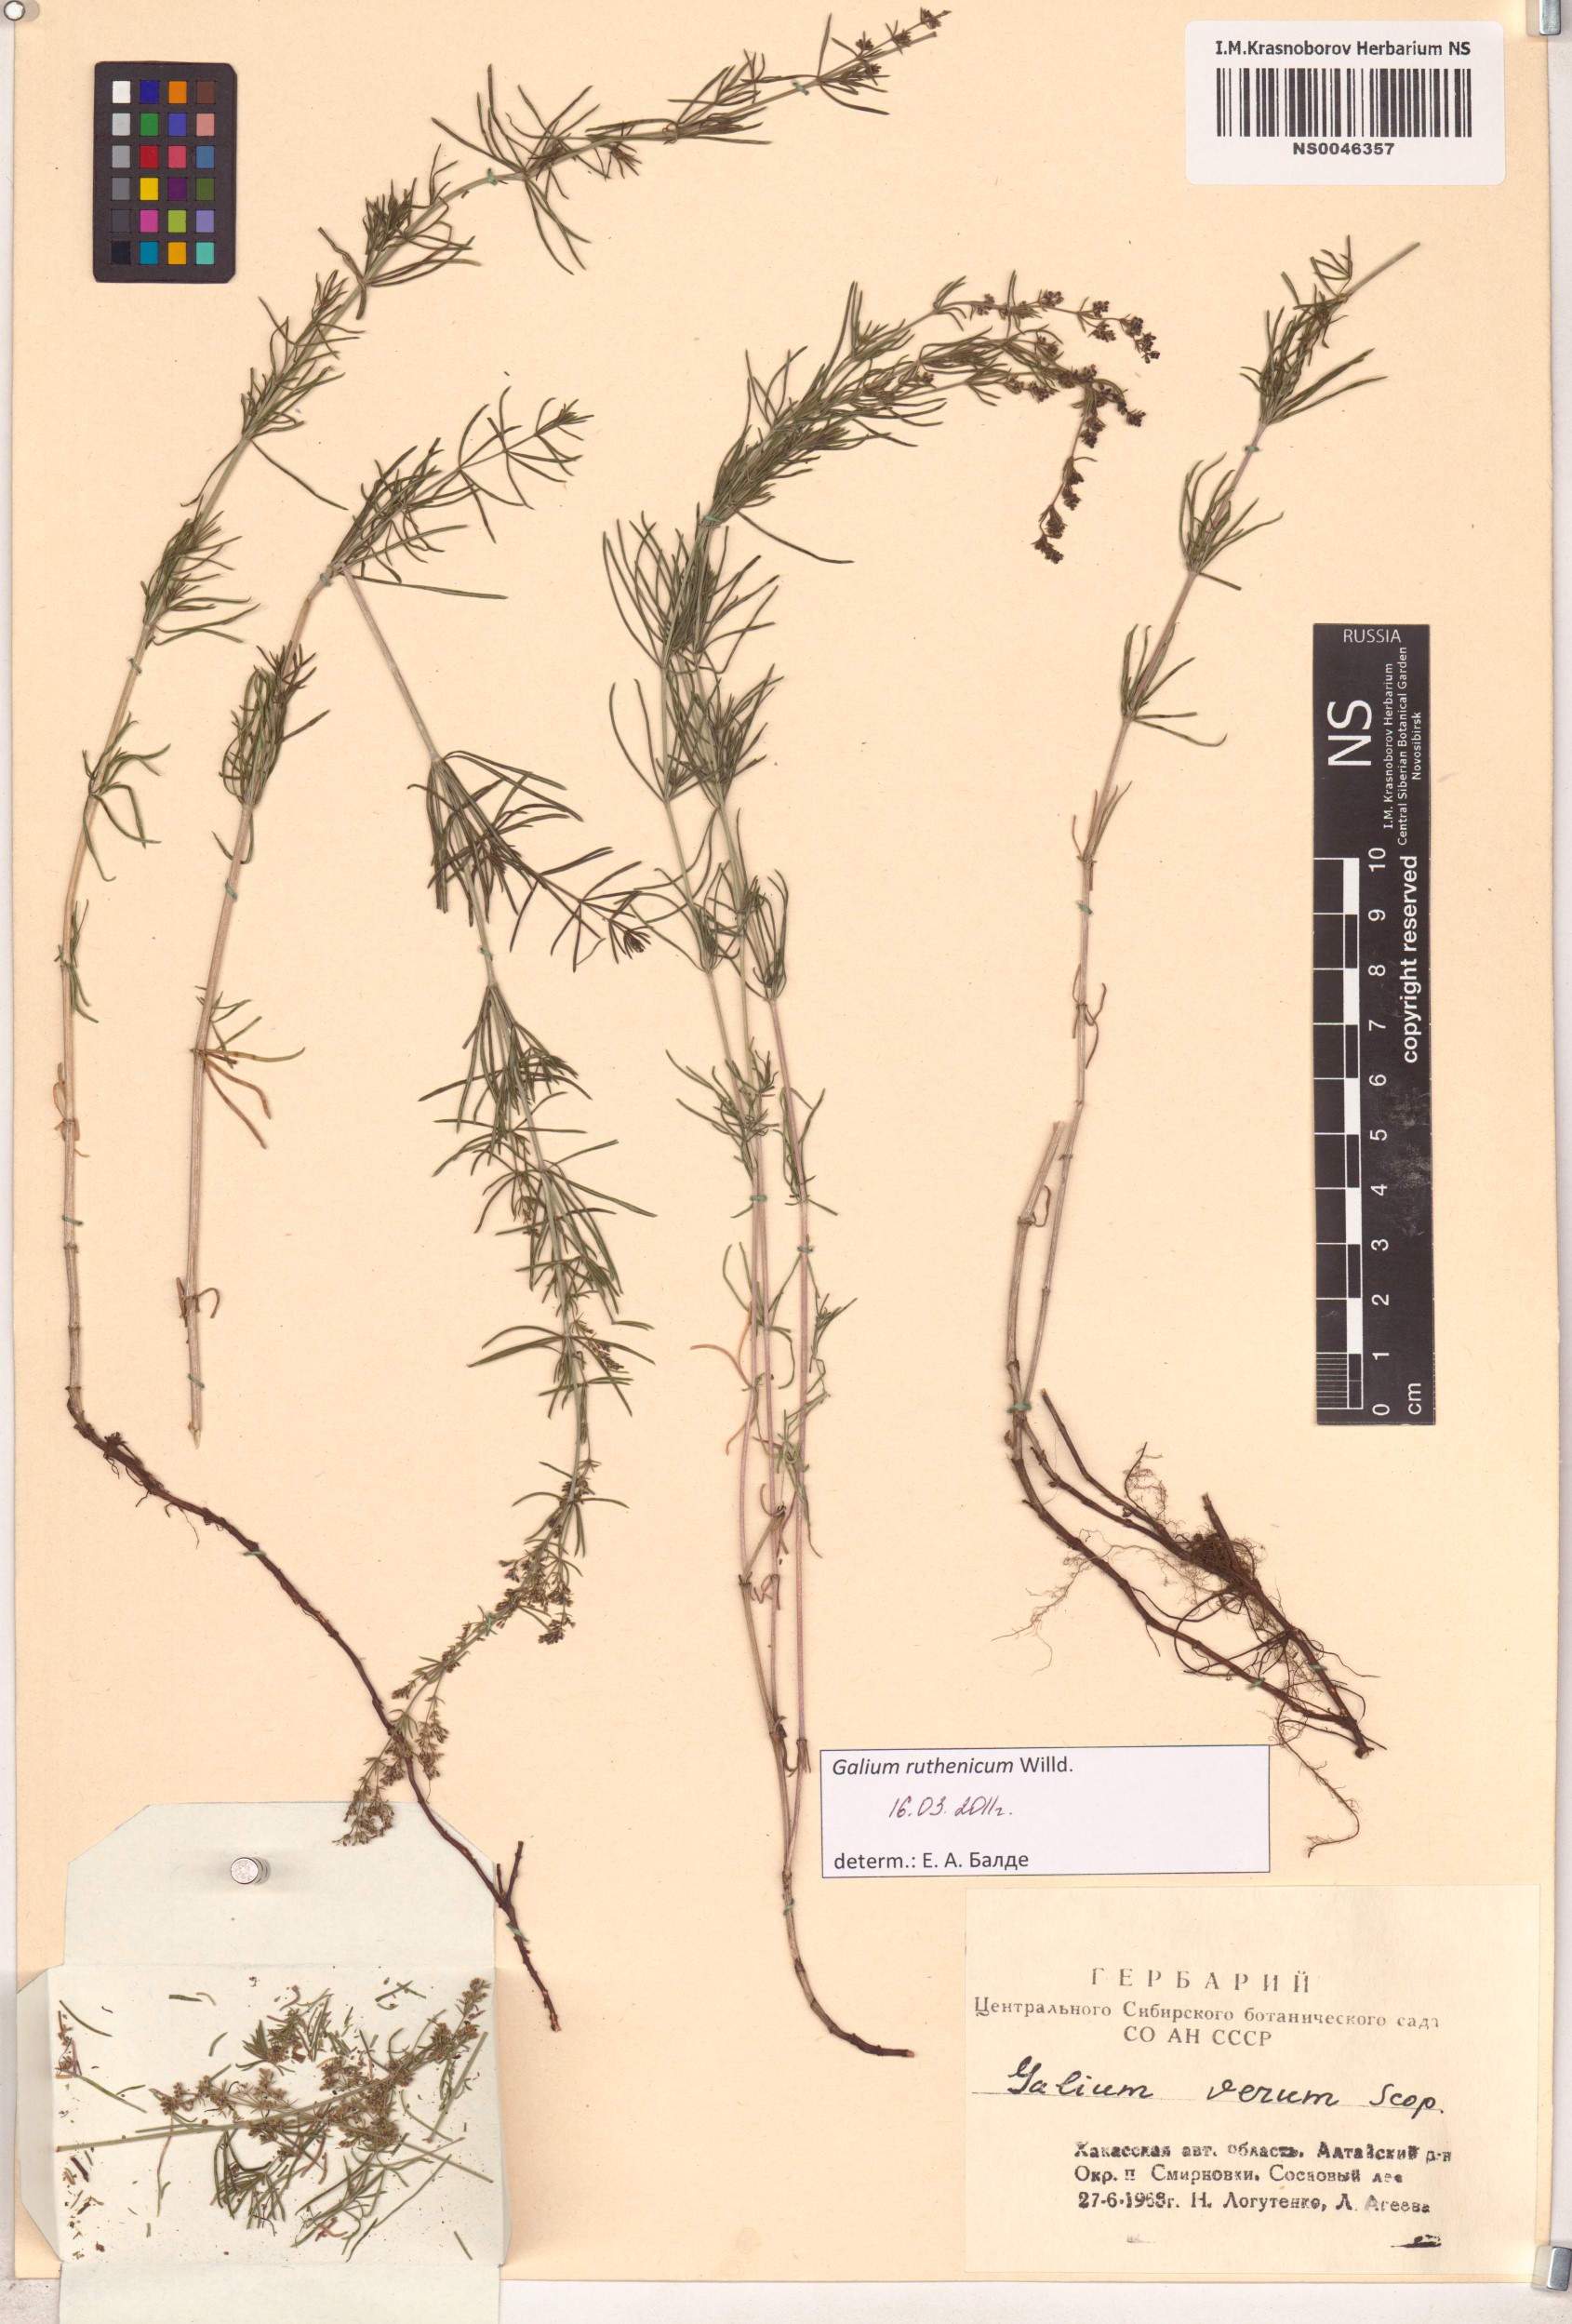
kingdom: Plantae
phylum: Tracheophyta
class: Magnoliopsida
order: Gentianales
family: Rubiaceae
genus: Galium
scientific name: Galium verum
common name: Lady's bedstraw
